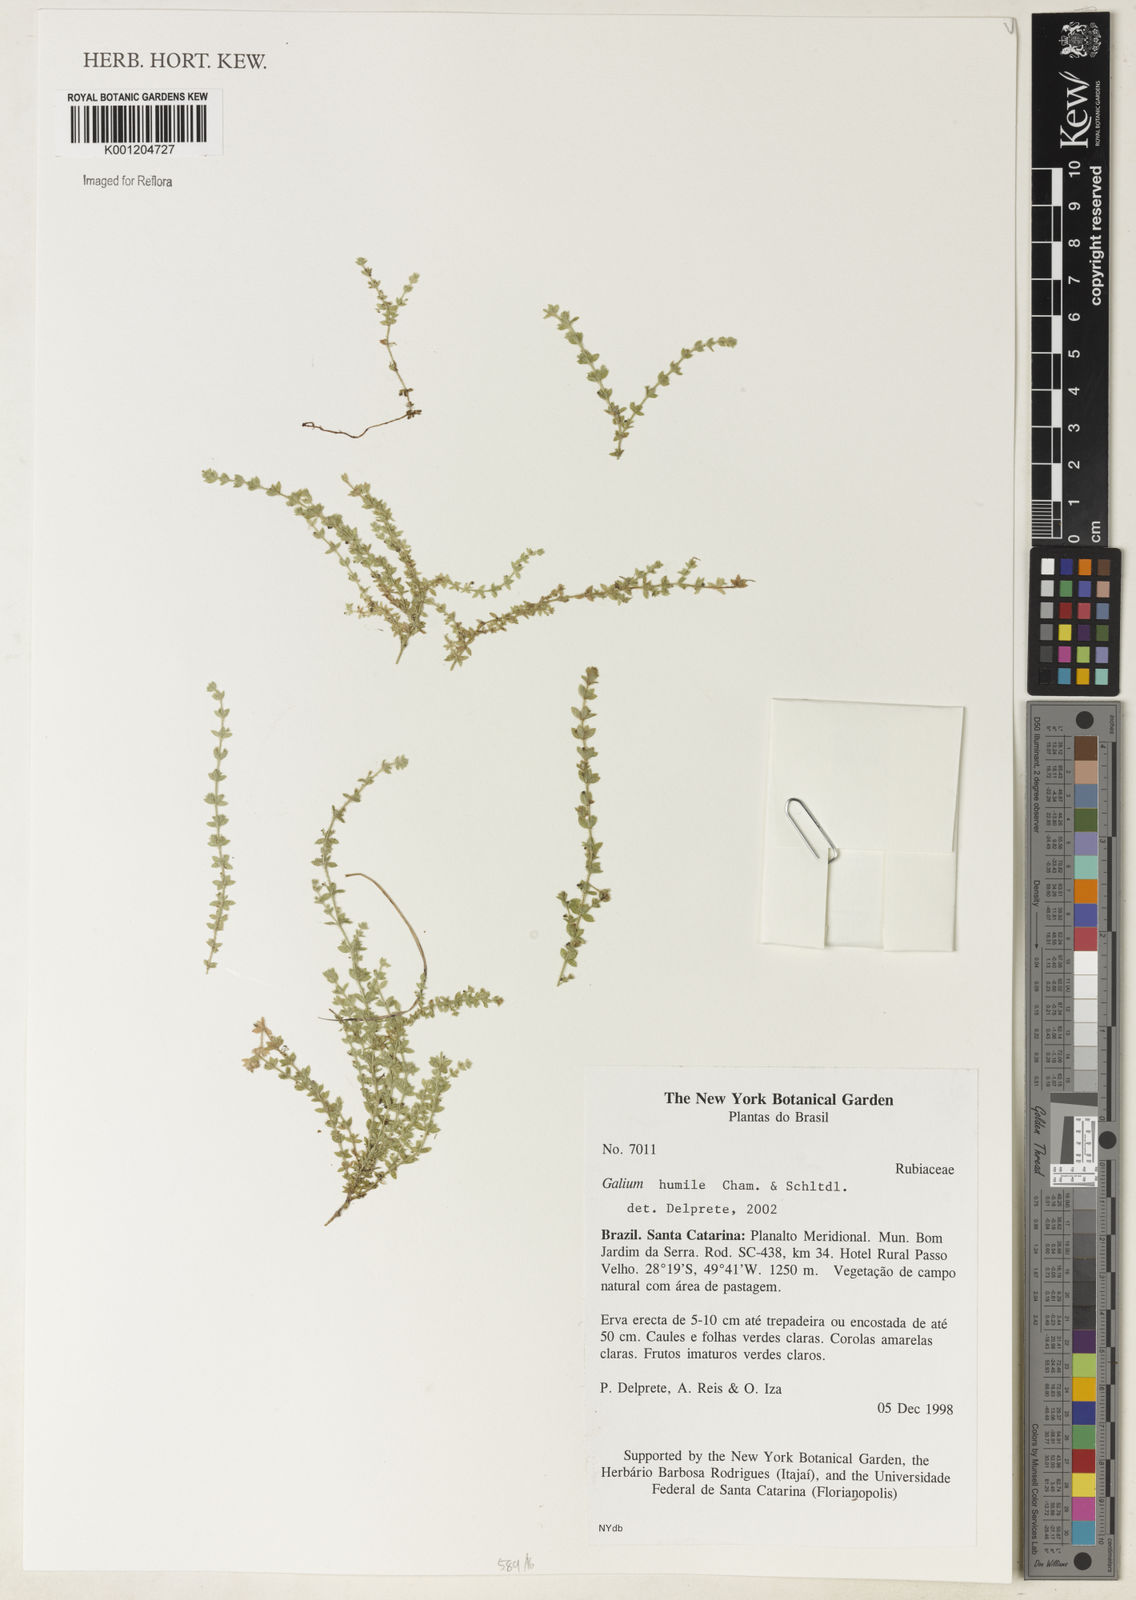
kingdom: Plantae
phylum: Tracheophyta
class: Magnoliopsida
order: Gentianales
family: Rubiaceae
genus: Galium
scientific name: Galium humile
